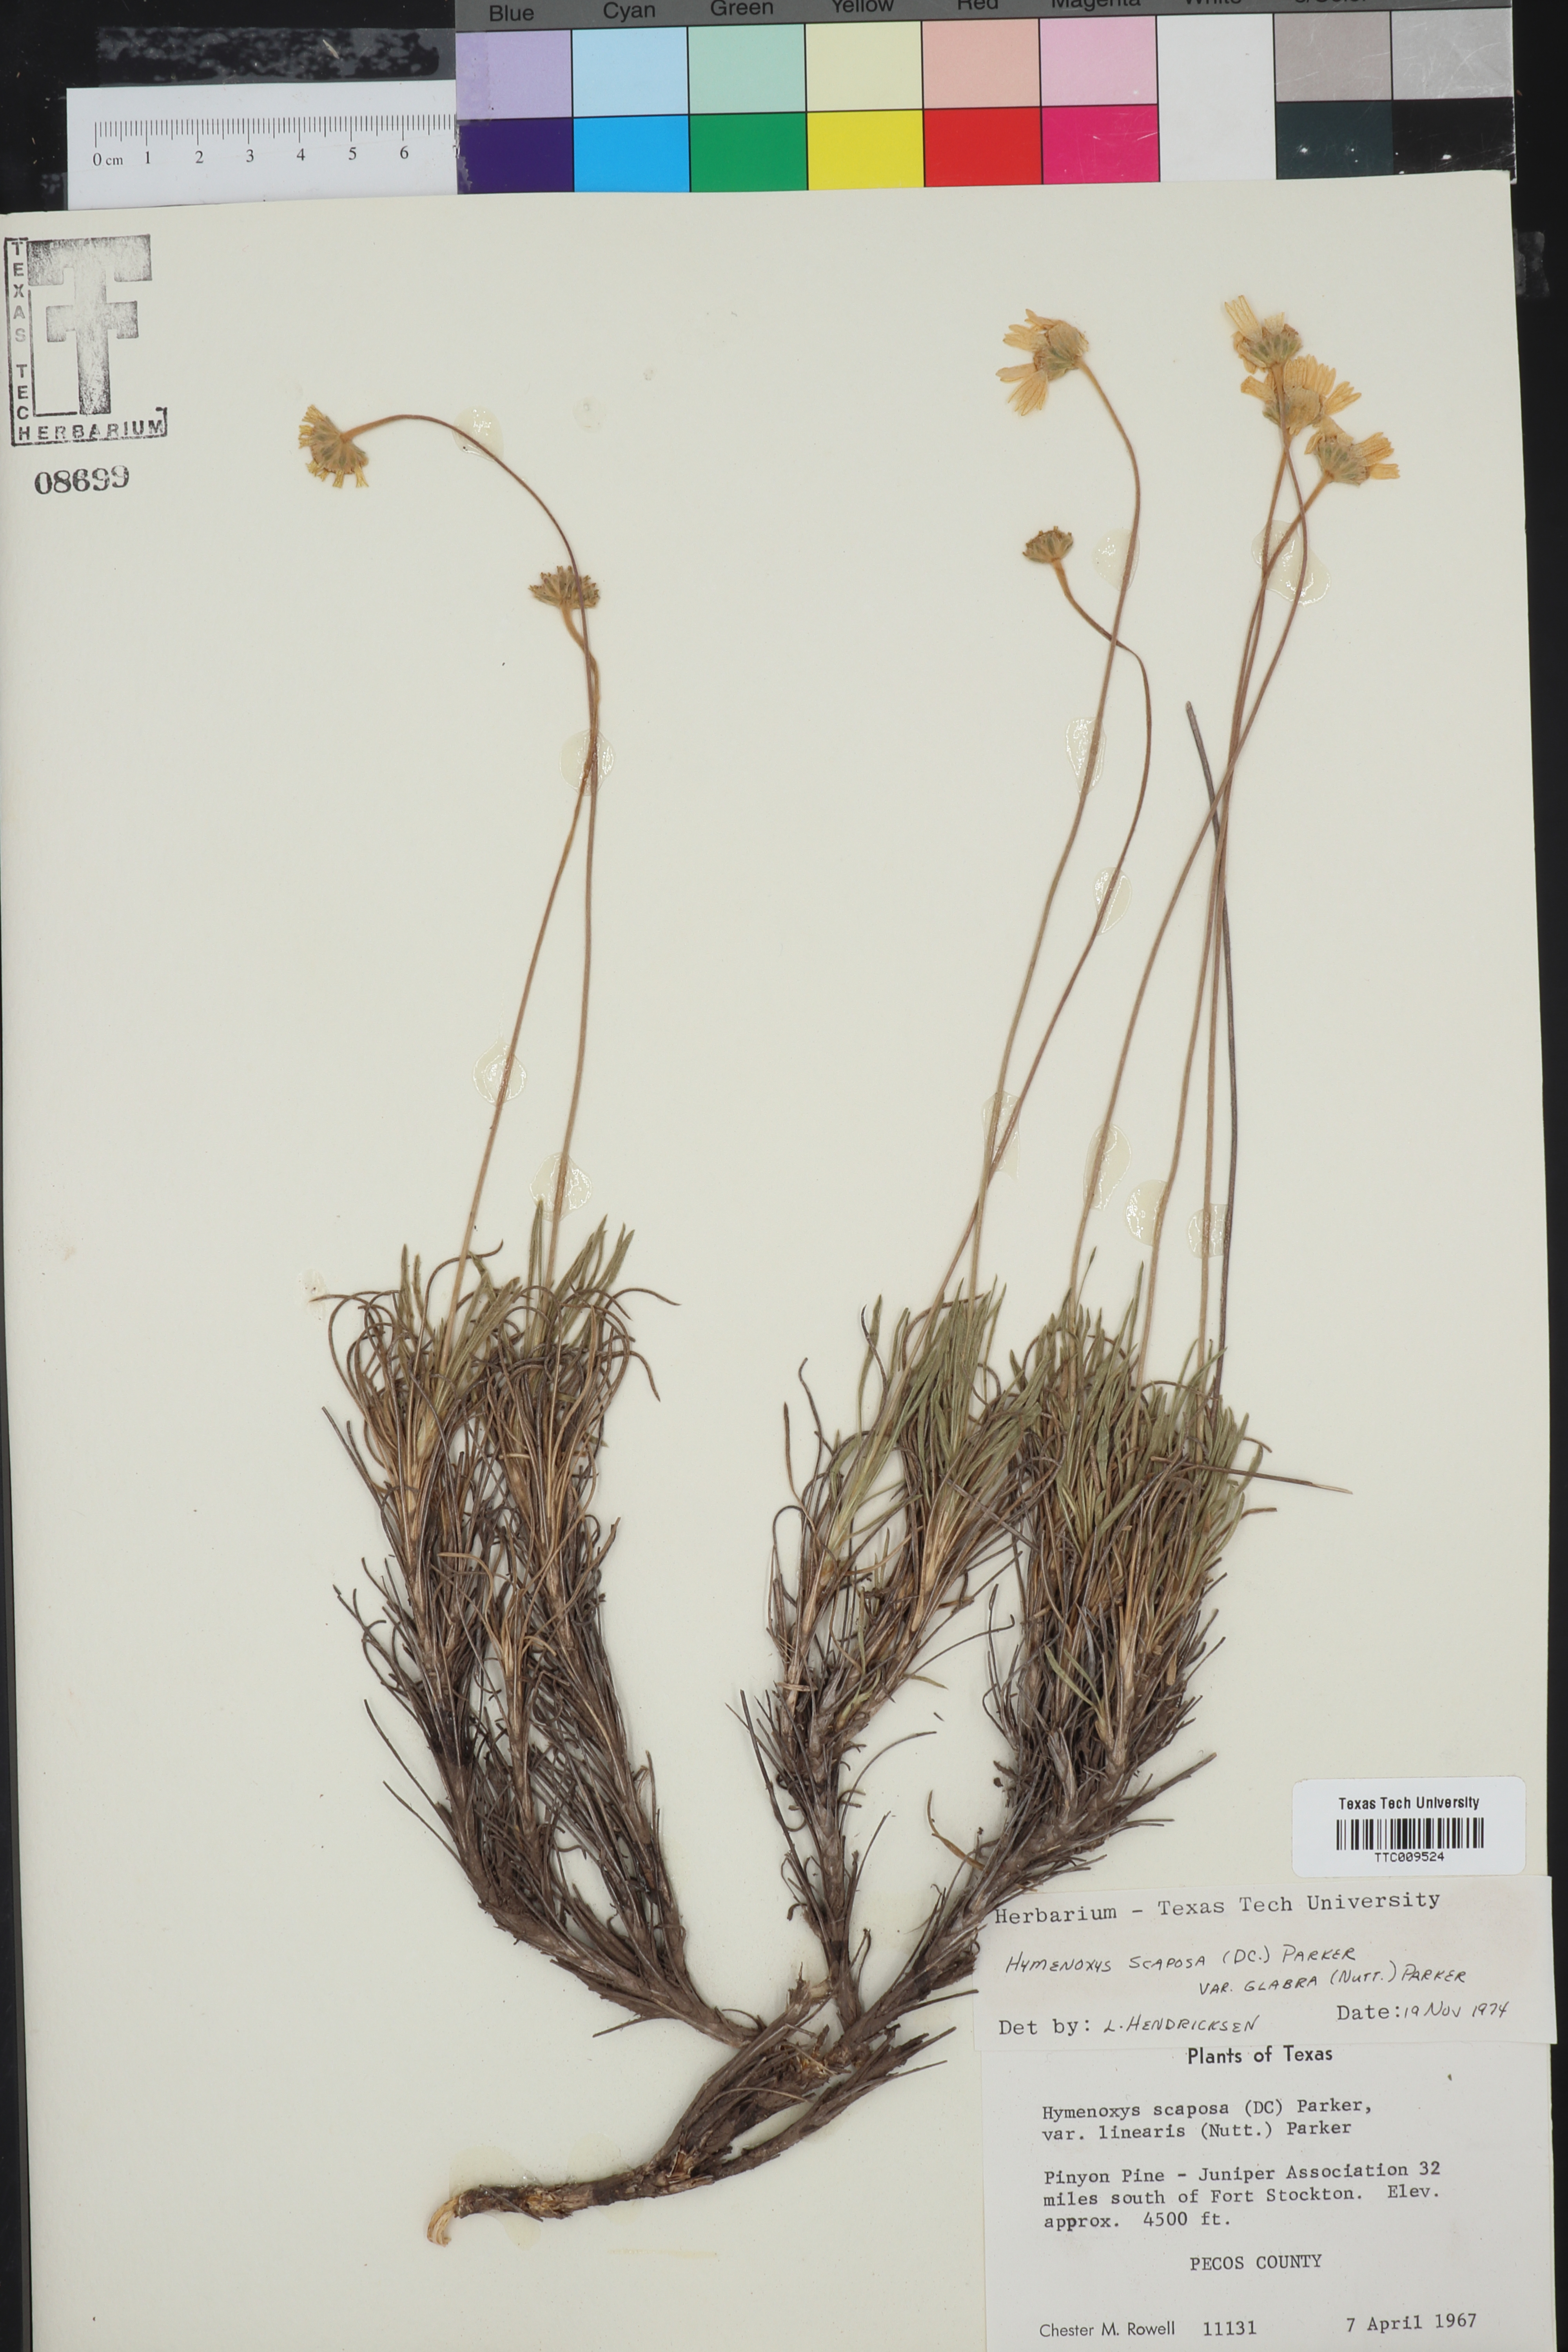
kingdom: Plantae
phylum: Tracheophyta
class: Magnoliopsida
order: Asterales
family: Asteraceae
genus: Tetraneuris
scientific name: Tetraneuris scaposa
